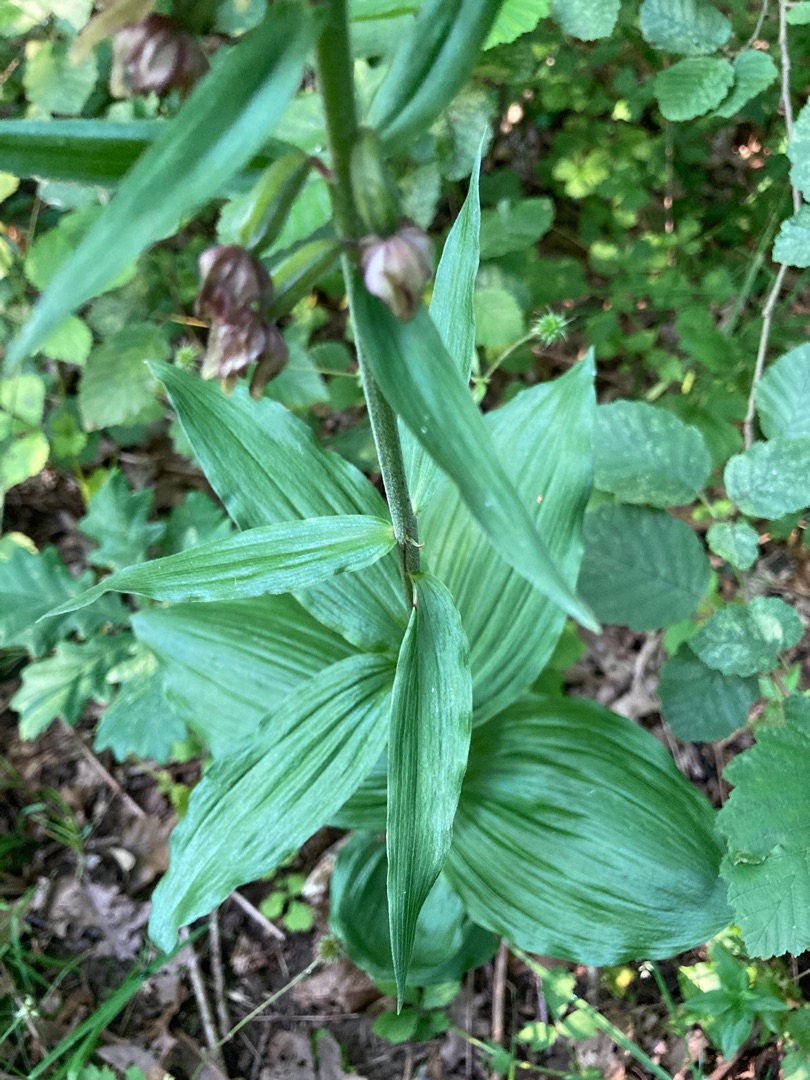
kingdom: Plantae
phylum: Tracheophyta
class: Liliopsida
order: Asparagales
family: Orchidaceae
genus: Epipactis
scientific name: Epipactis helleborine
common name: Skov-hullæbe
